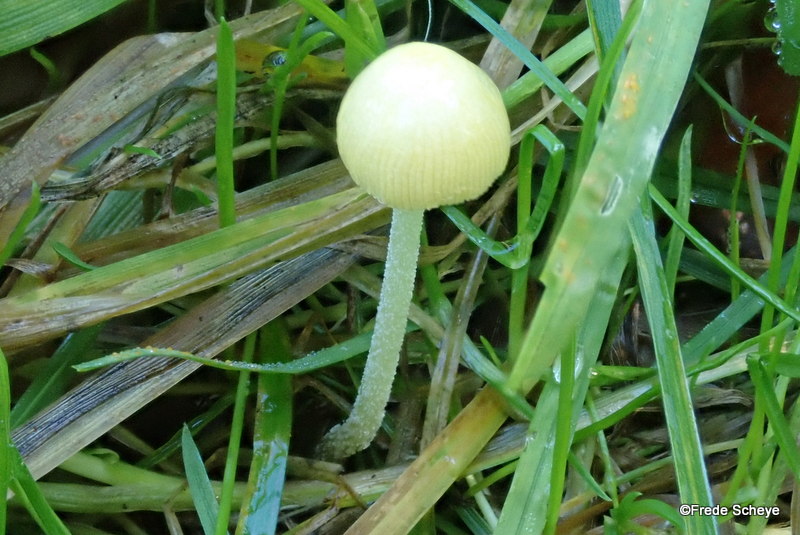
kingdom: Fungi
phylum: Basidiomycota
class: Agaricomycetes
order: Agaricales
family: Bolbitiaceae
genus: Bolbitius
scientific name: Bolbitius titubans
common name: almindelig gulhat
